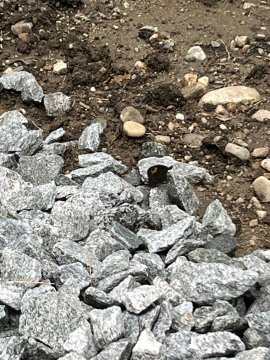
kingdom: Animalia
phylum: Arthropoda
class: Insecta
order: Lepidoptera
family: Nymphalidae
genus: Cercyonis
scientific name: Cercyonis pegala
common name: Common Wood-Nymph
